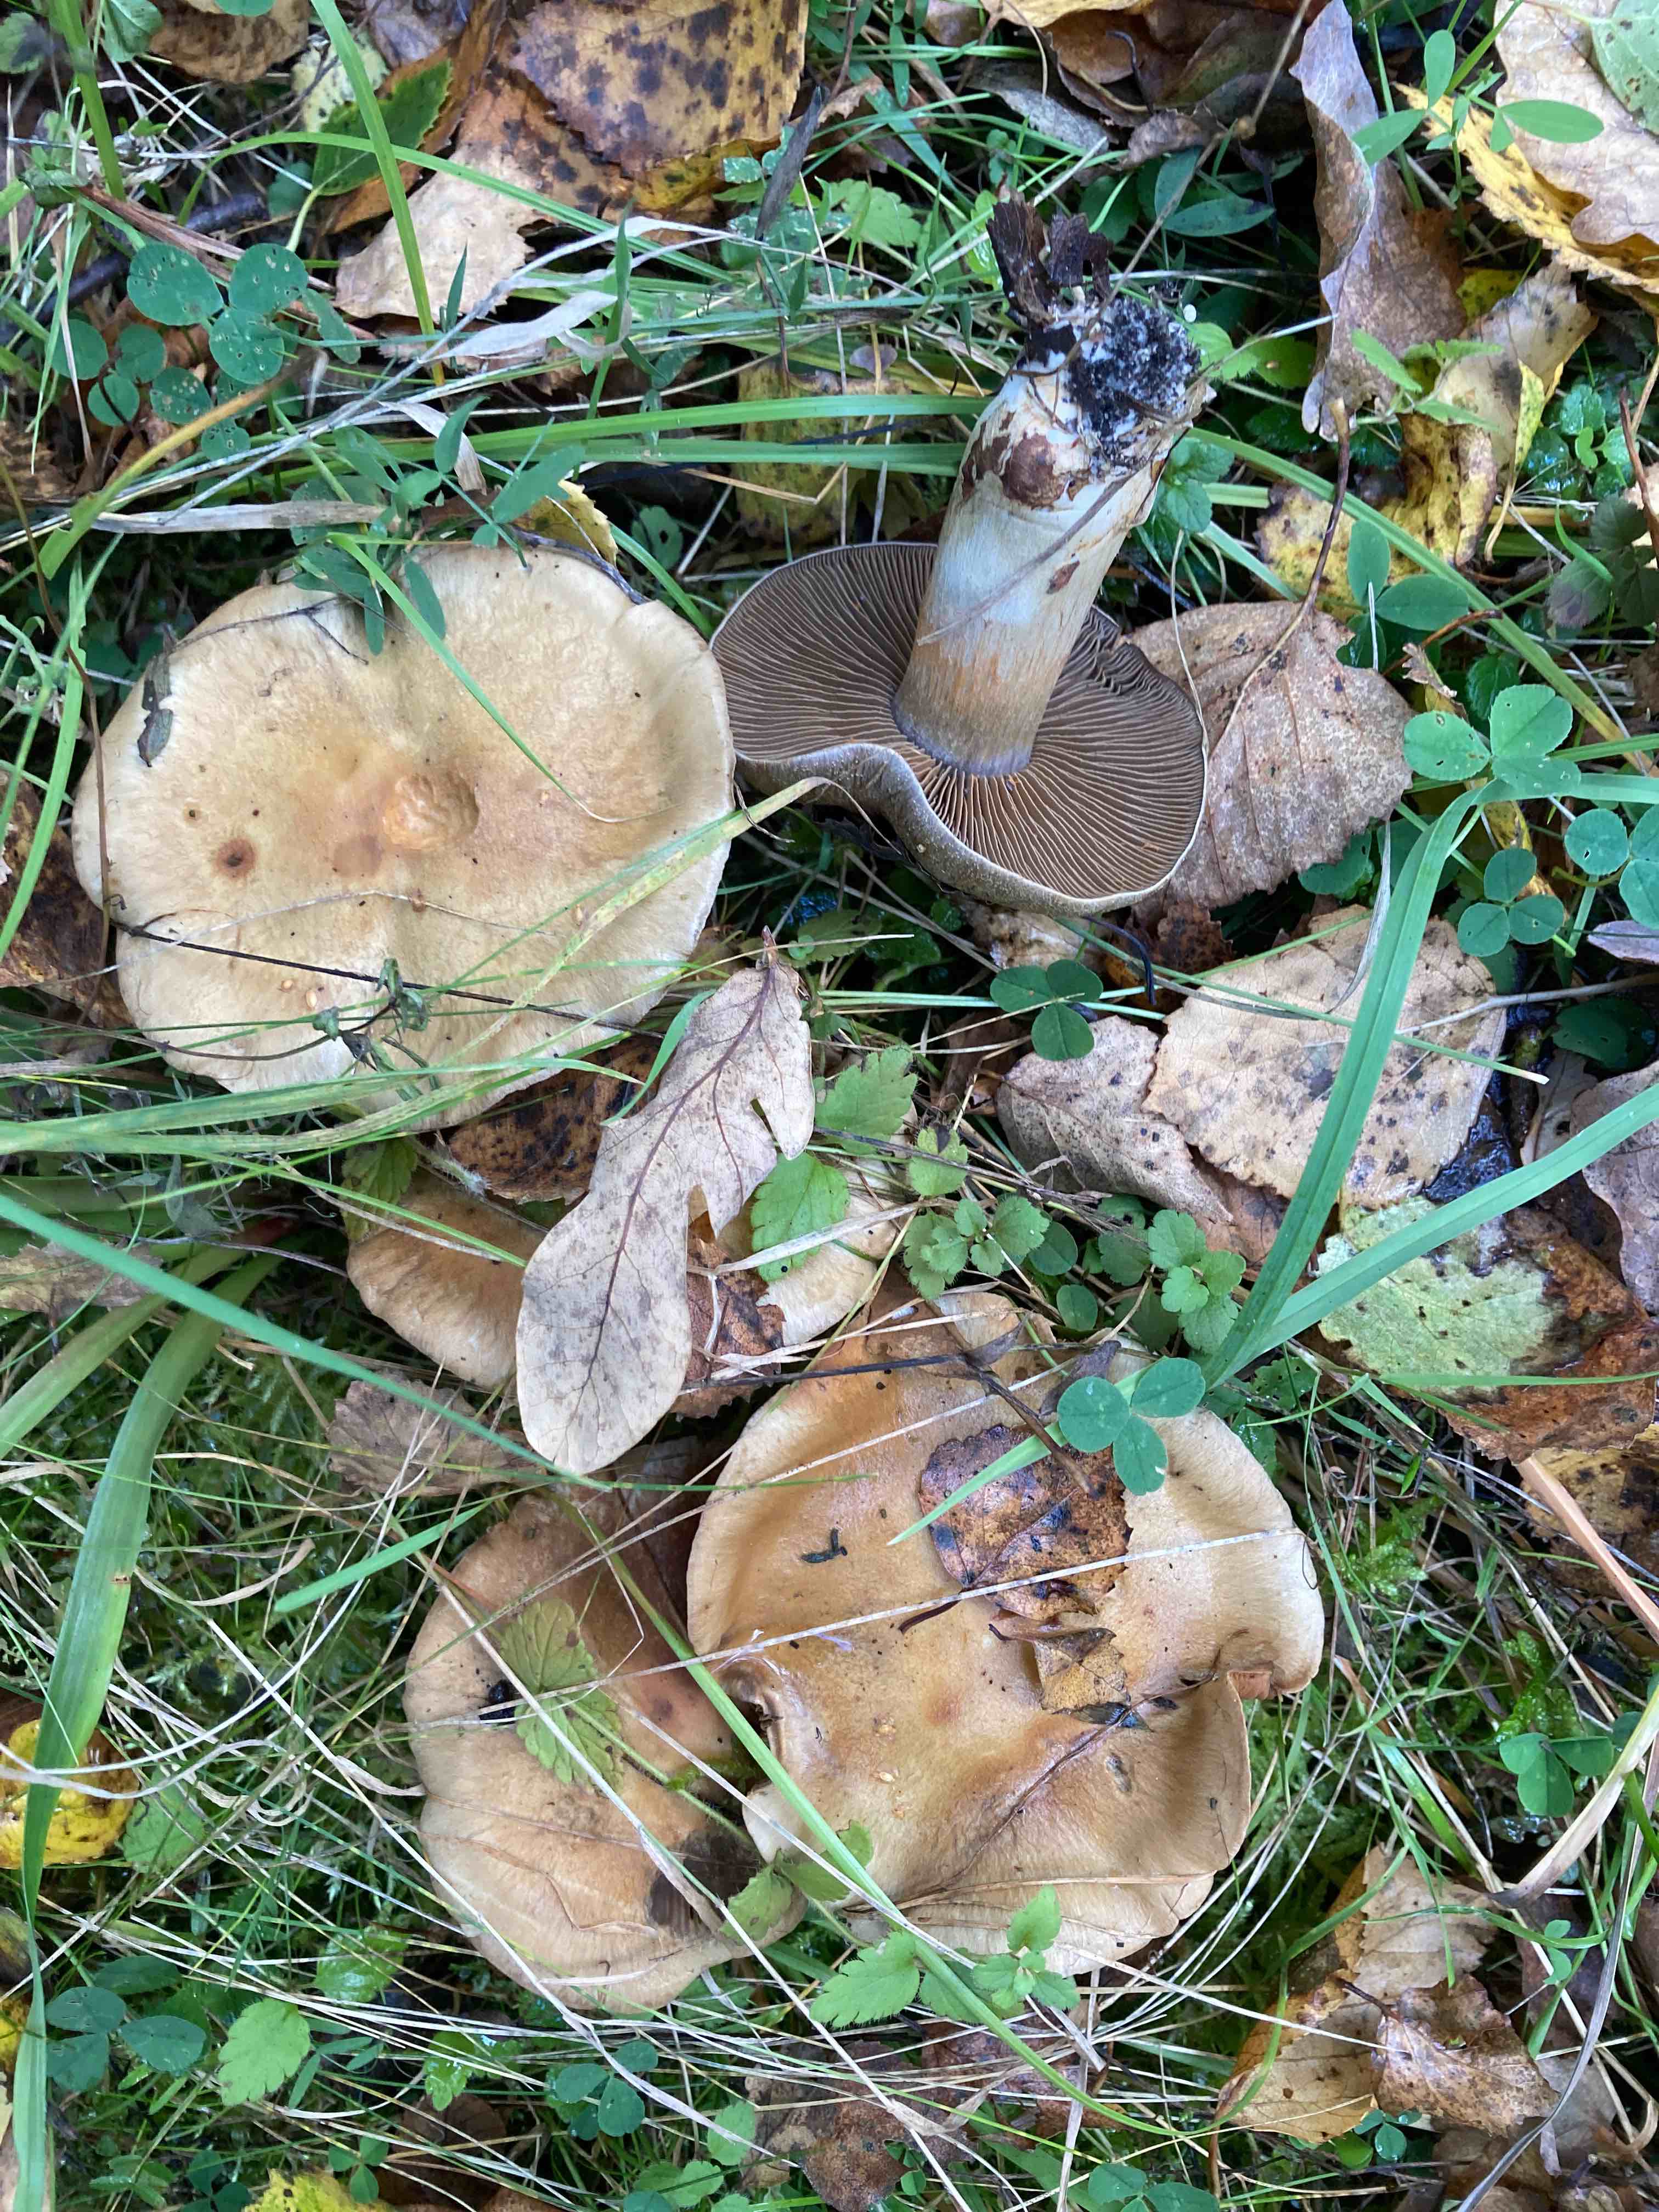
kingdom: Fungi
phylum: Basidiomycota
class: Agaricomycetes
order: Agaricales
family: Cortinariaceae
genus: Cortinarius
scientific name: Cortinarius
